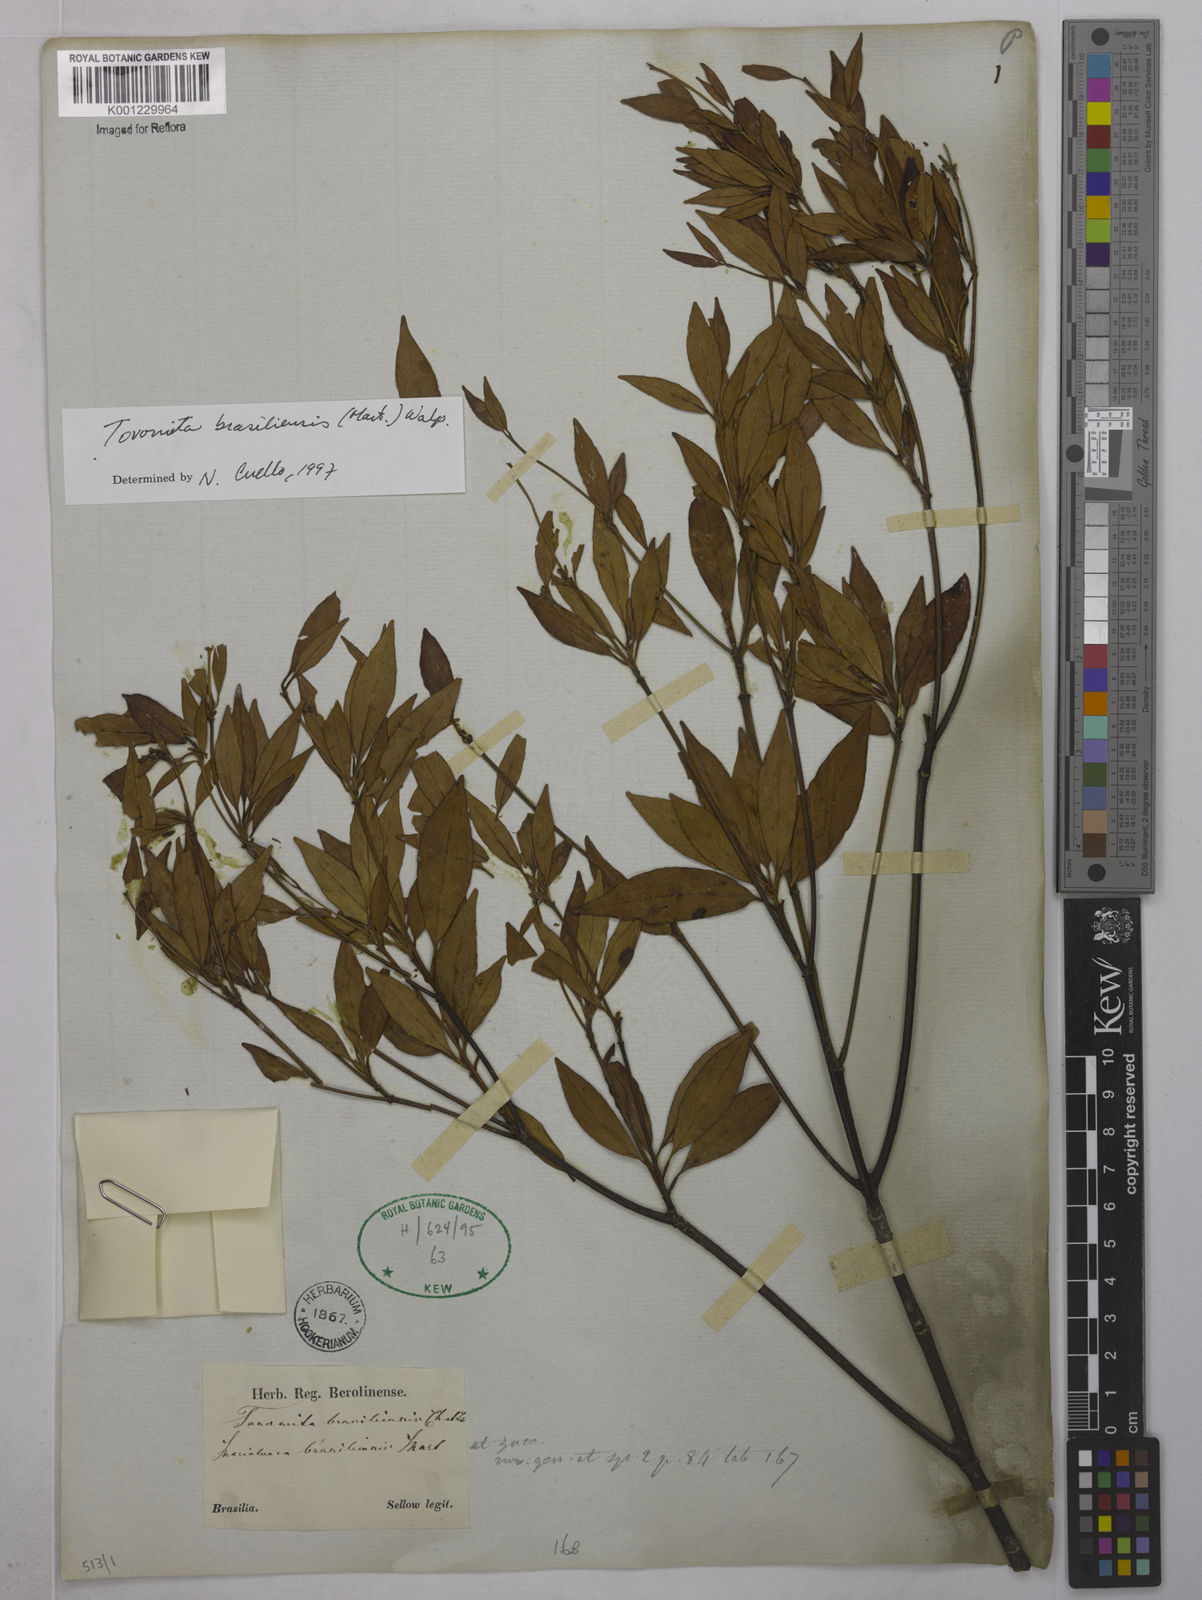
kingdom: Plantae
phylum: Tracheophyta
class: Magnoliopsida
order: Malpighiales
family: Clusiaceae
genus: Tovomita
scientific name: Tovomita
